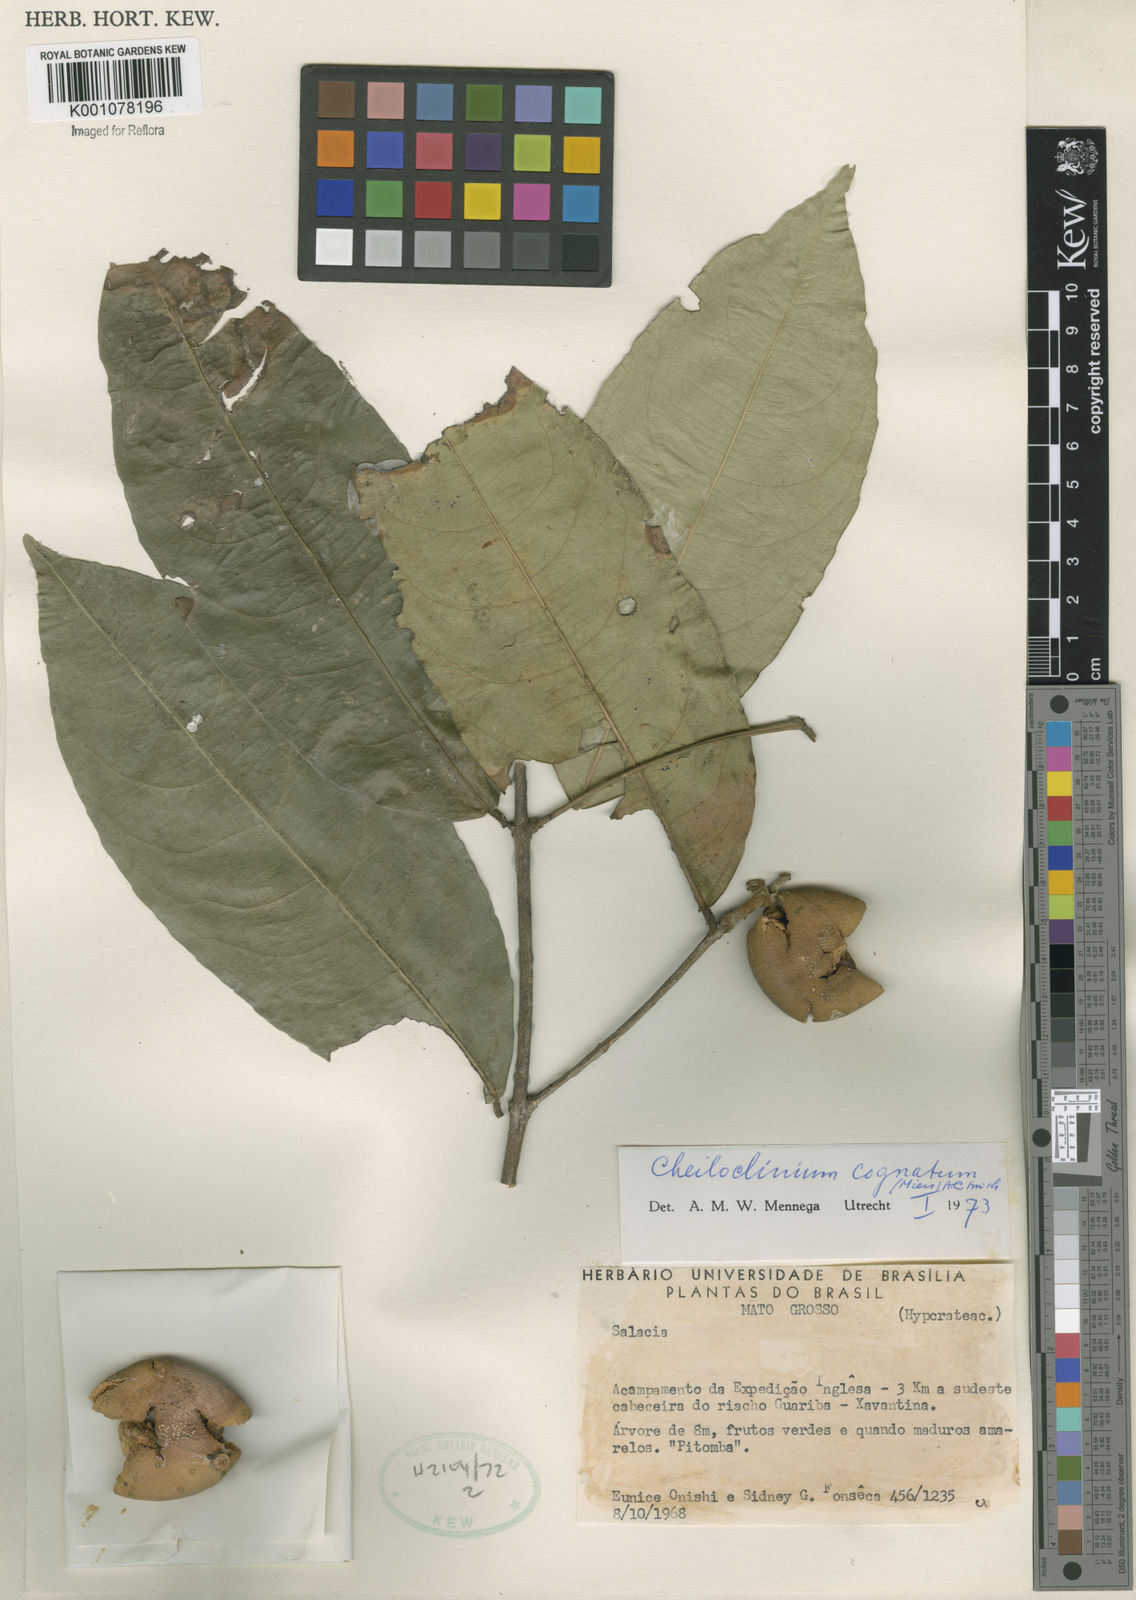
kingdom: Plantae
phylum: Tracheophyta
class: Magnoliopsida
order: Celastrales
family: Celastraceae
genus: Cheiloclinium
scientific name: Cheiloclinium cognatum
